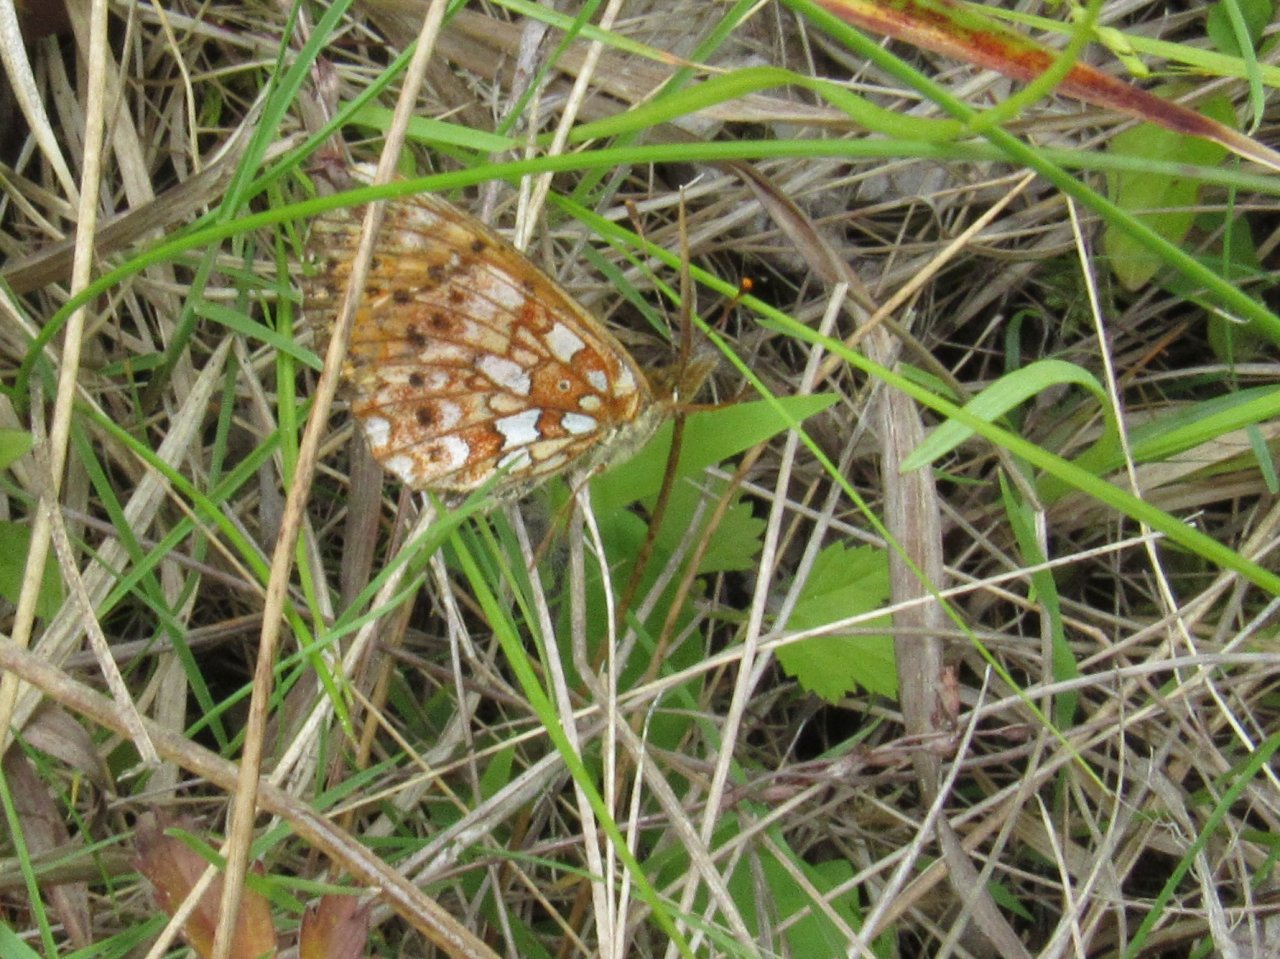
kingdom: Animalia
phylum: Arthropoda
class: Insecta
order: Lepidoptera
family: Nymphalidae
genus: Boloria
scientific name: Boloria selene
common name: Silver-bordered Fritillary
